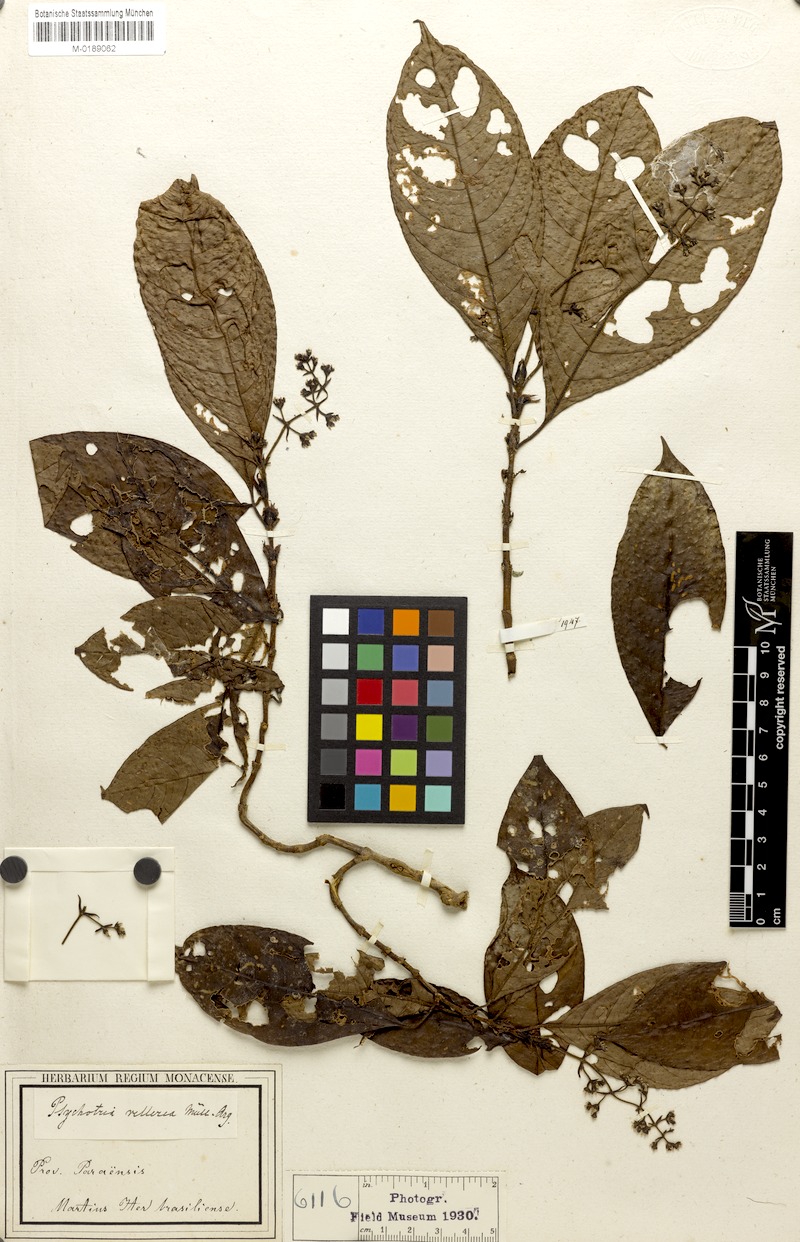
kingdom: Plantae
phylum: Tracheophyta
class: Magnoliopsida
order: Gentianales
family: Rubiaceae
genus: Palicourea
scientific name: Palicourea vellerea
